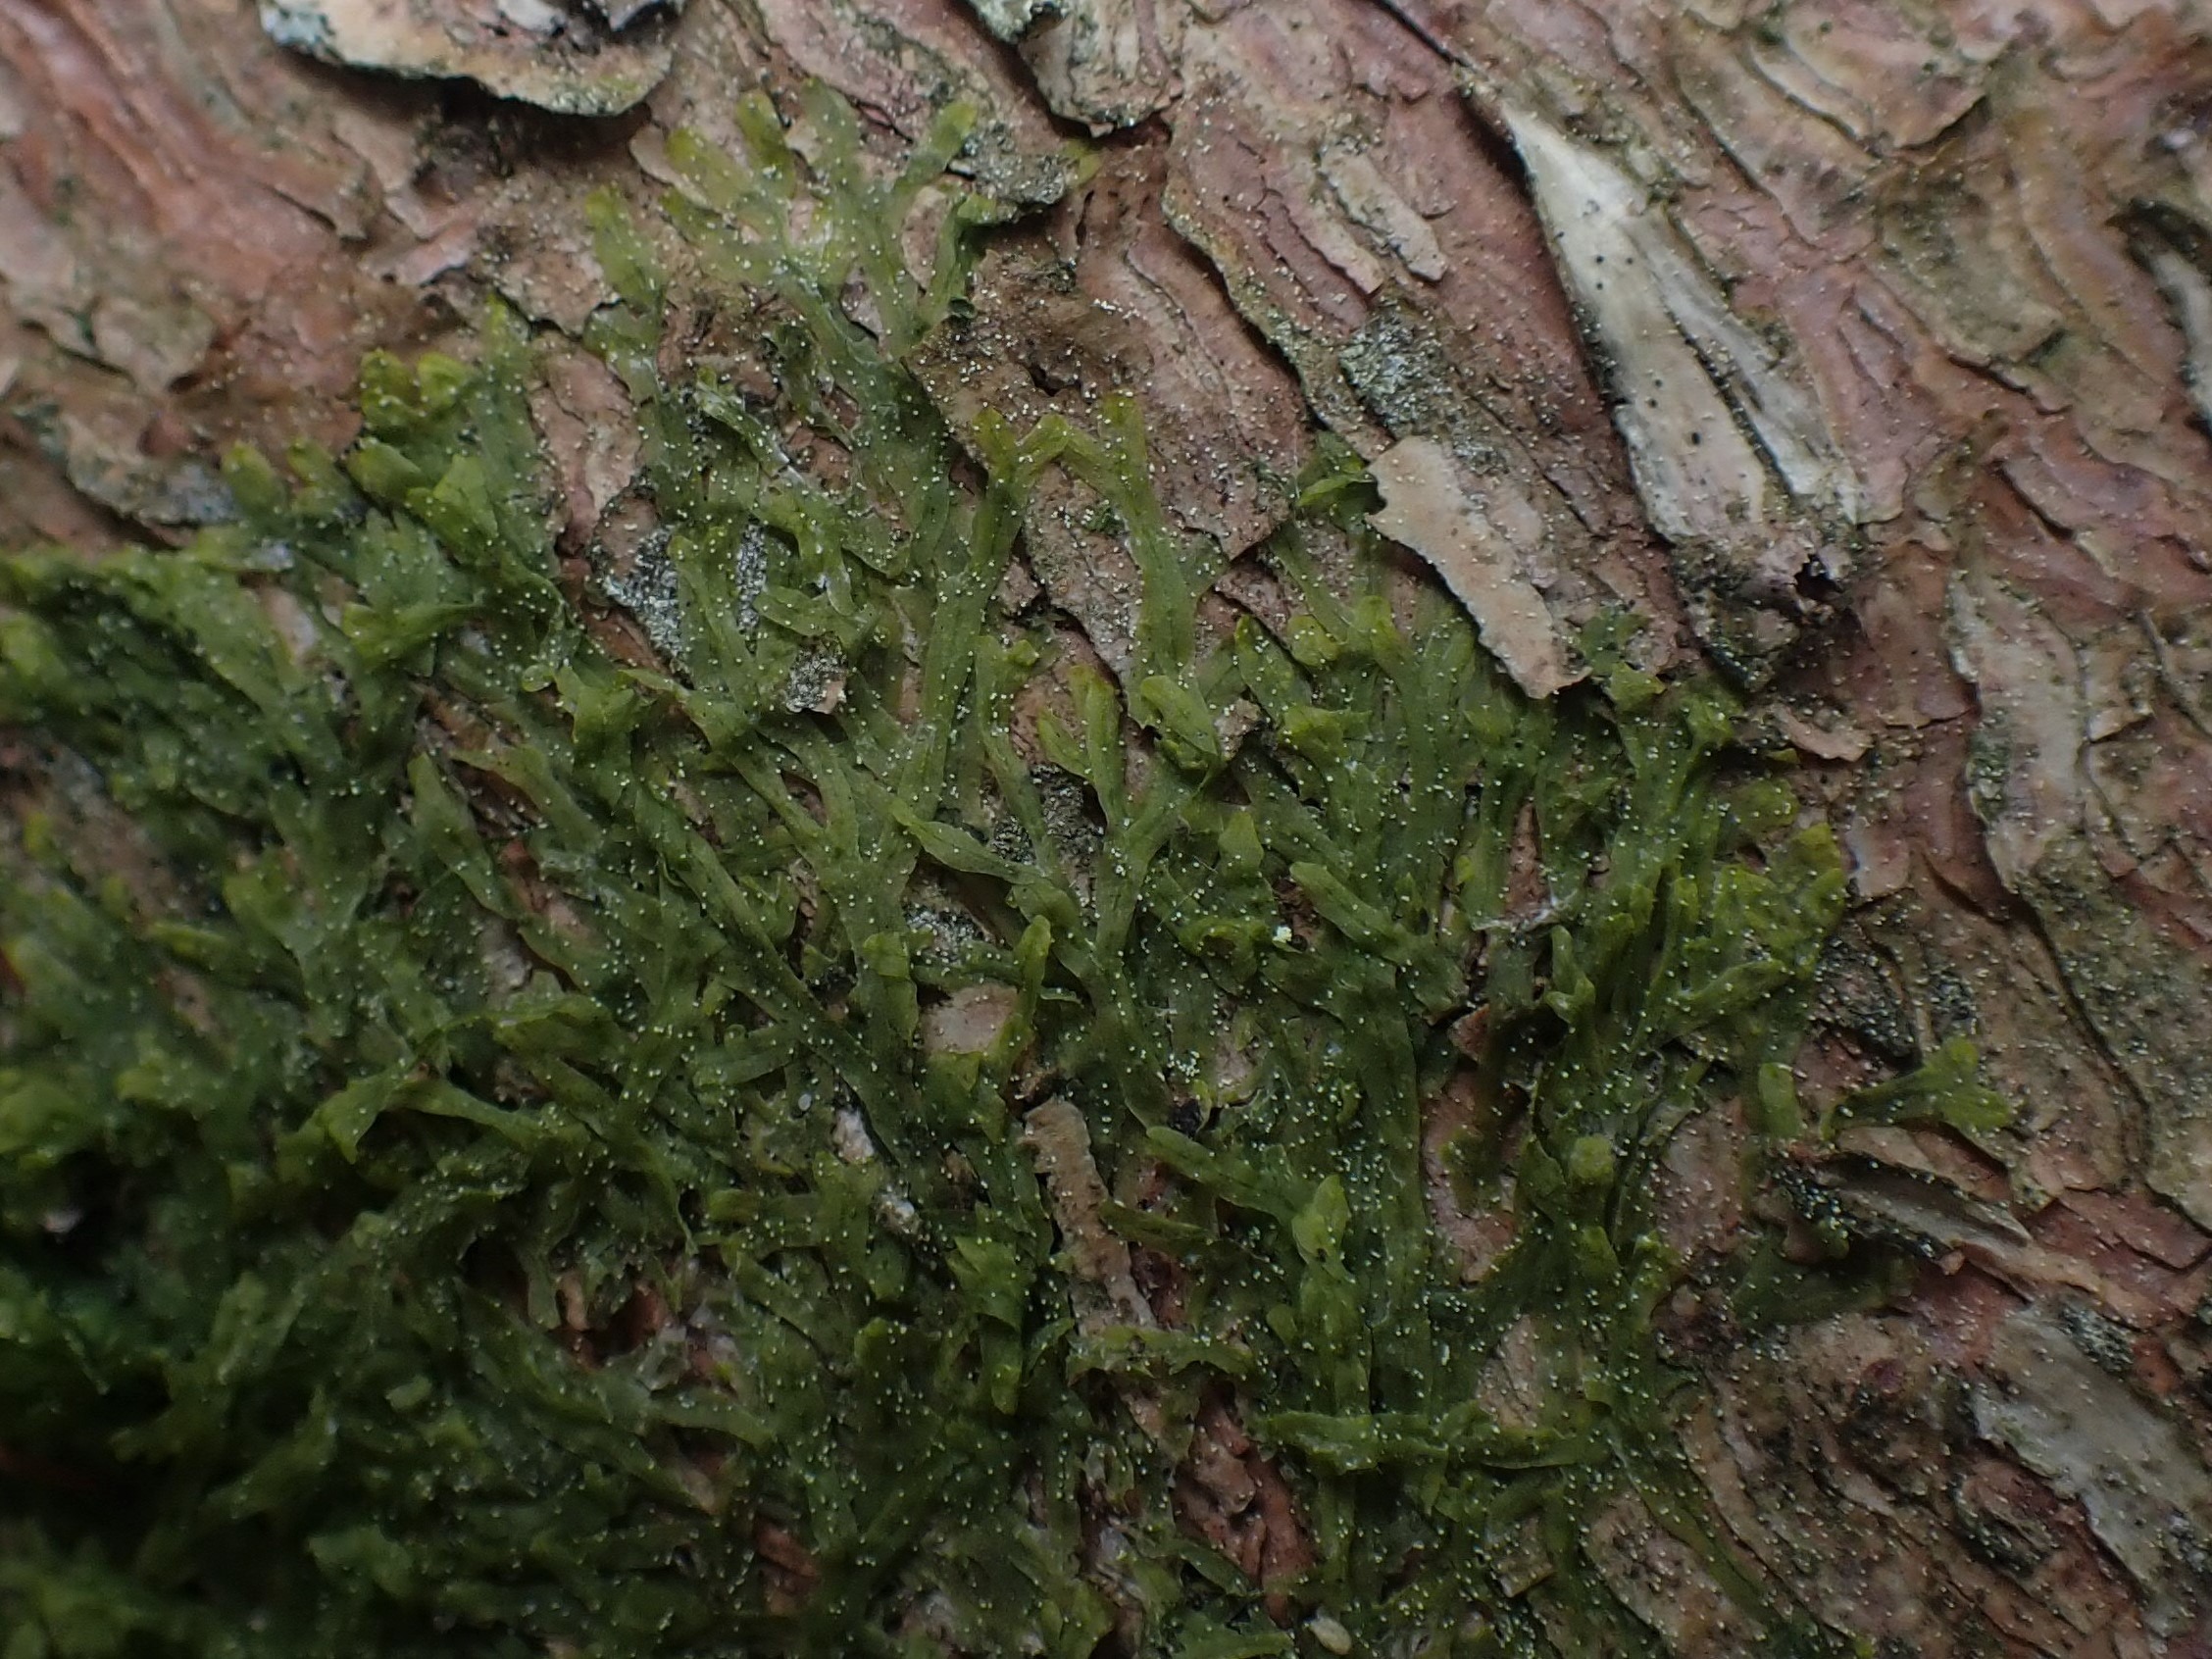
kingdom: Plantae
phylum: Marchantiophyta
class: Jungermanniopsida
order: Metzgeriales
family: Metzgeriaceae
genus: Metzgeria
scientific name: Metzgeria furcata
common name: Almindelig gaffelløv
